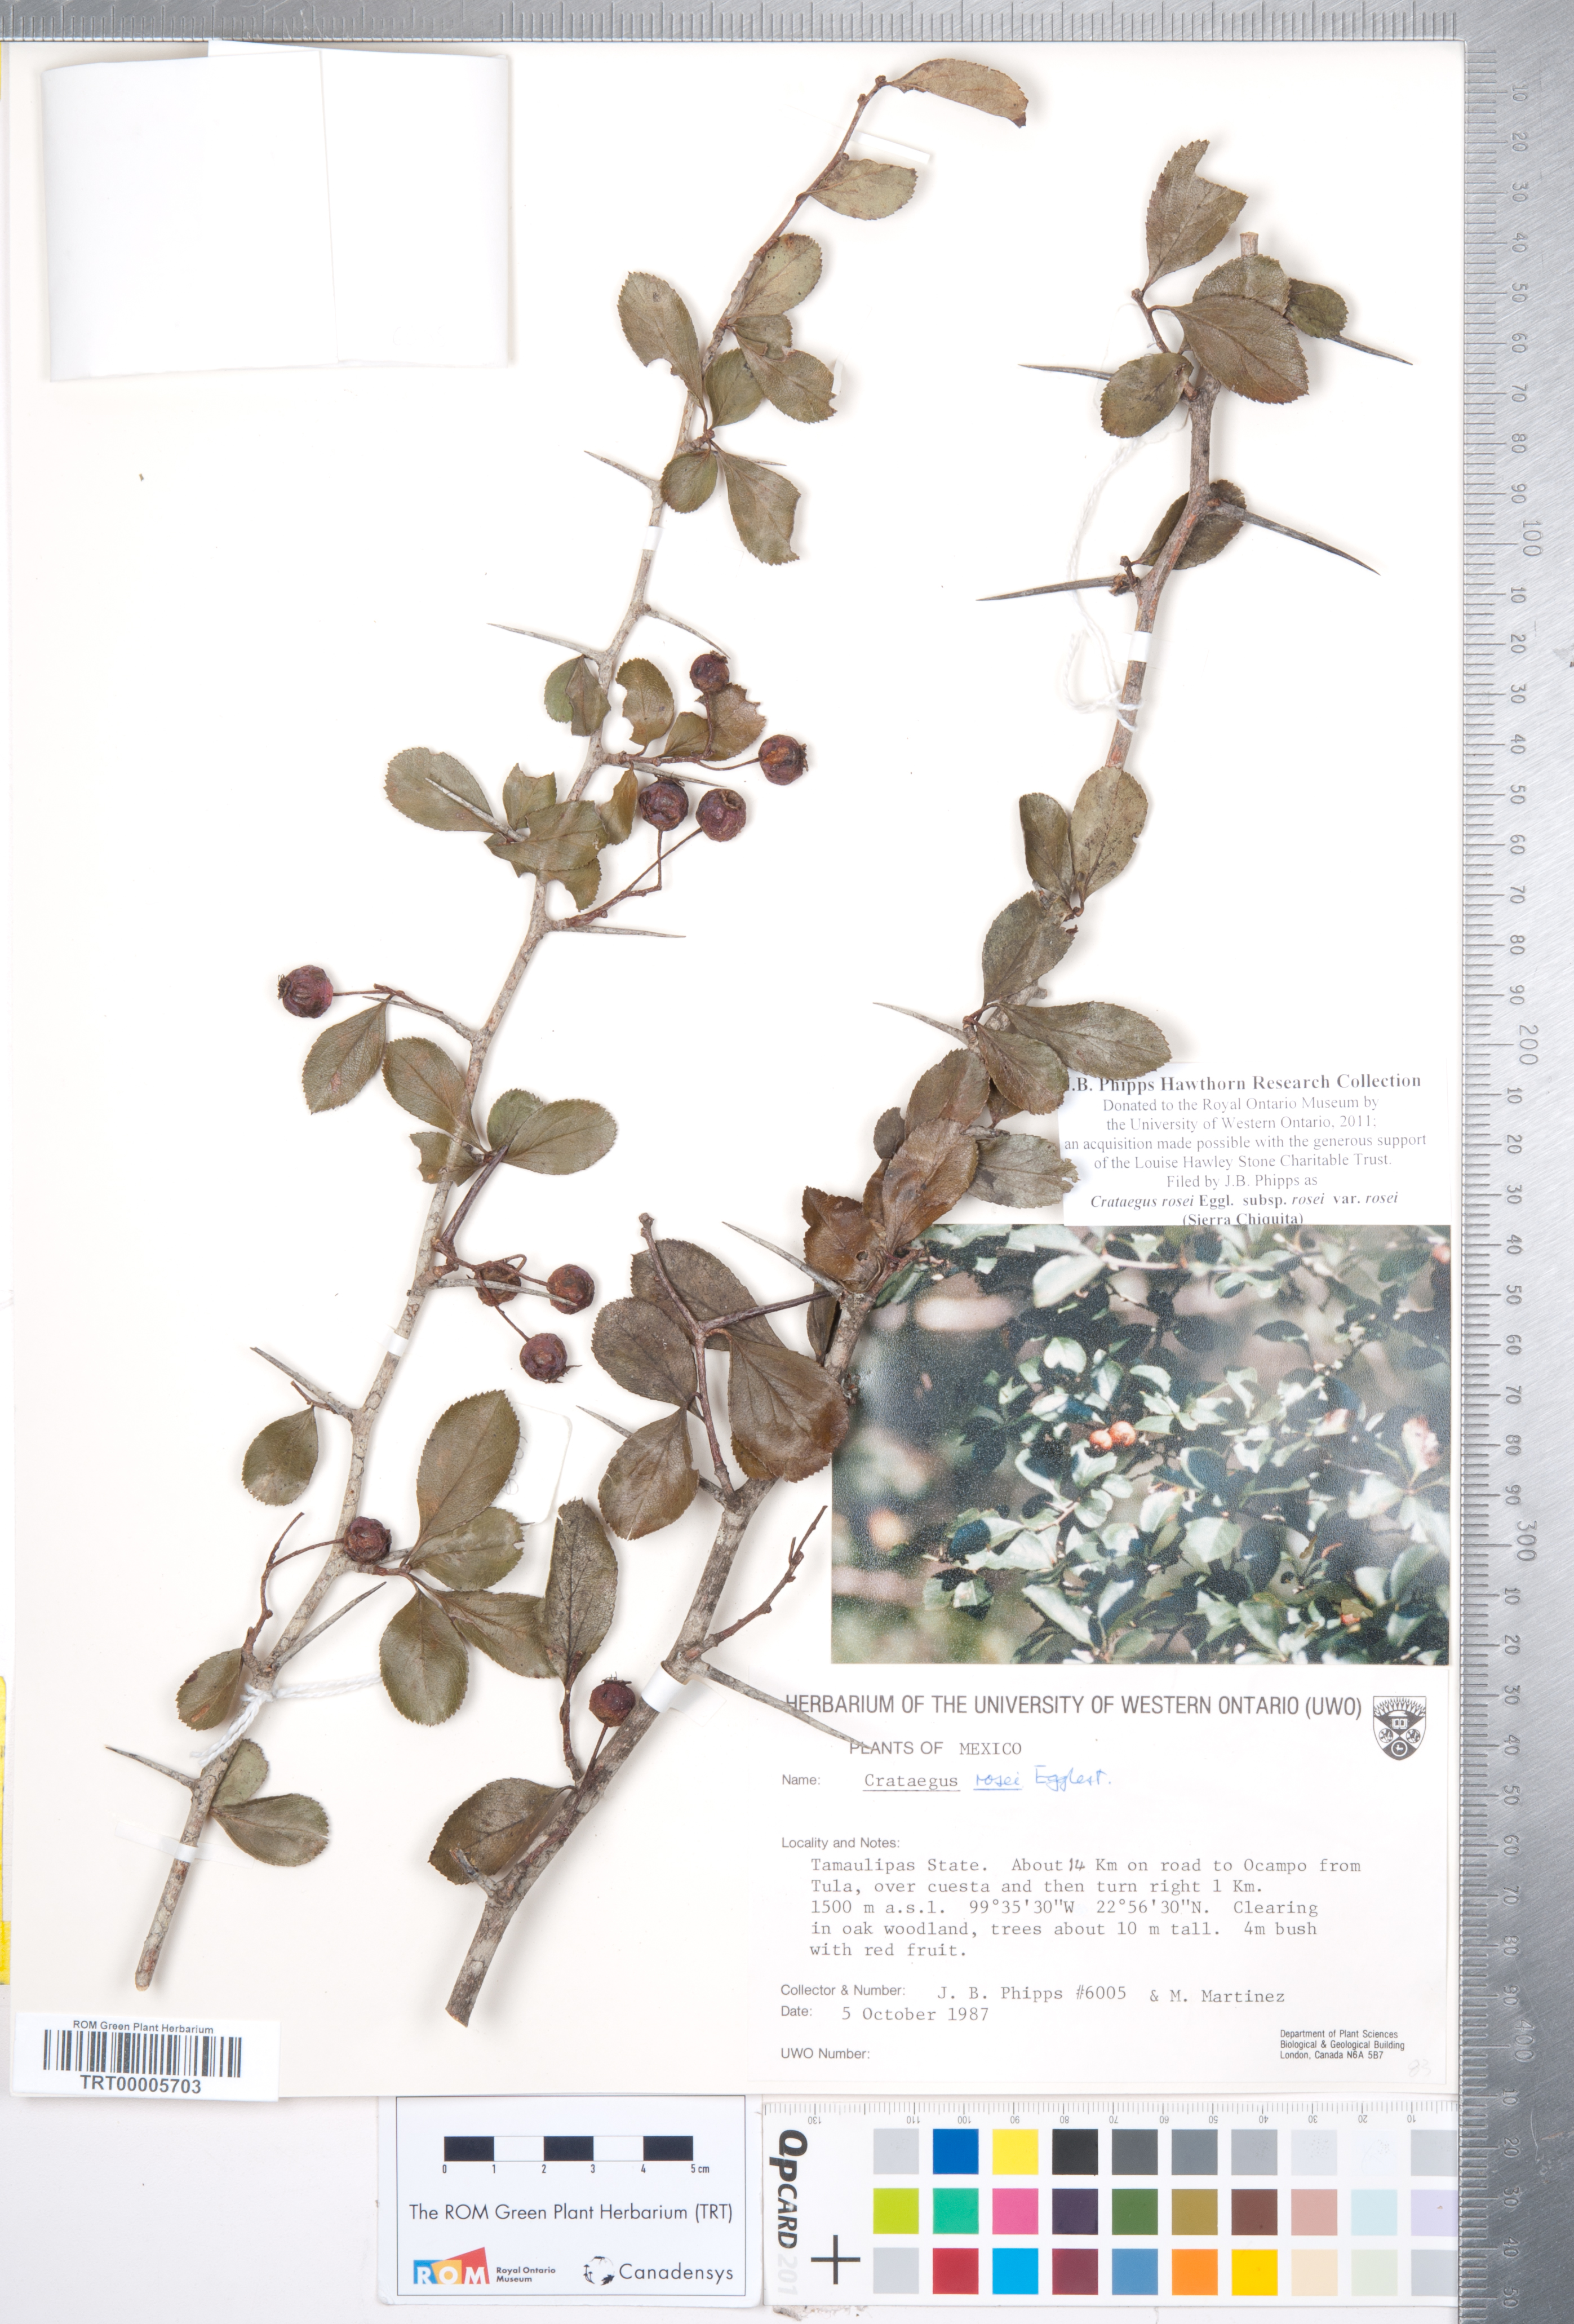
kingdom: Plantae
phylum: Tracheophyta
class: Magnoliopsida
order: Rosales
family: Rosaceae
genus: Crataegus
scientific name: Crataegus rosei
